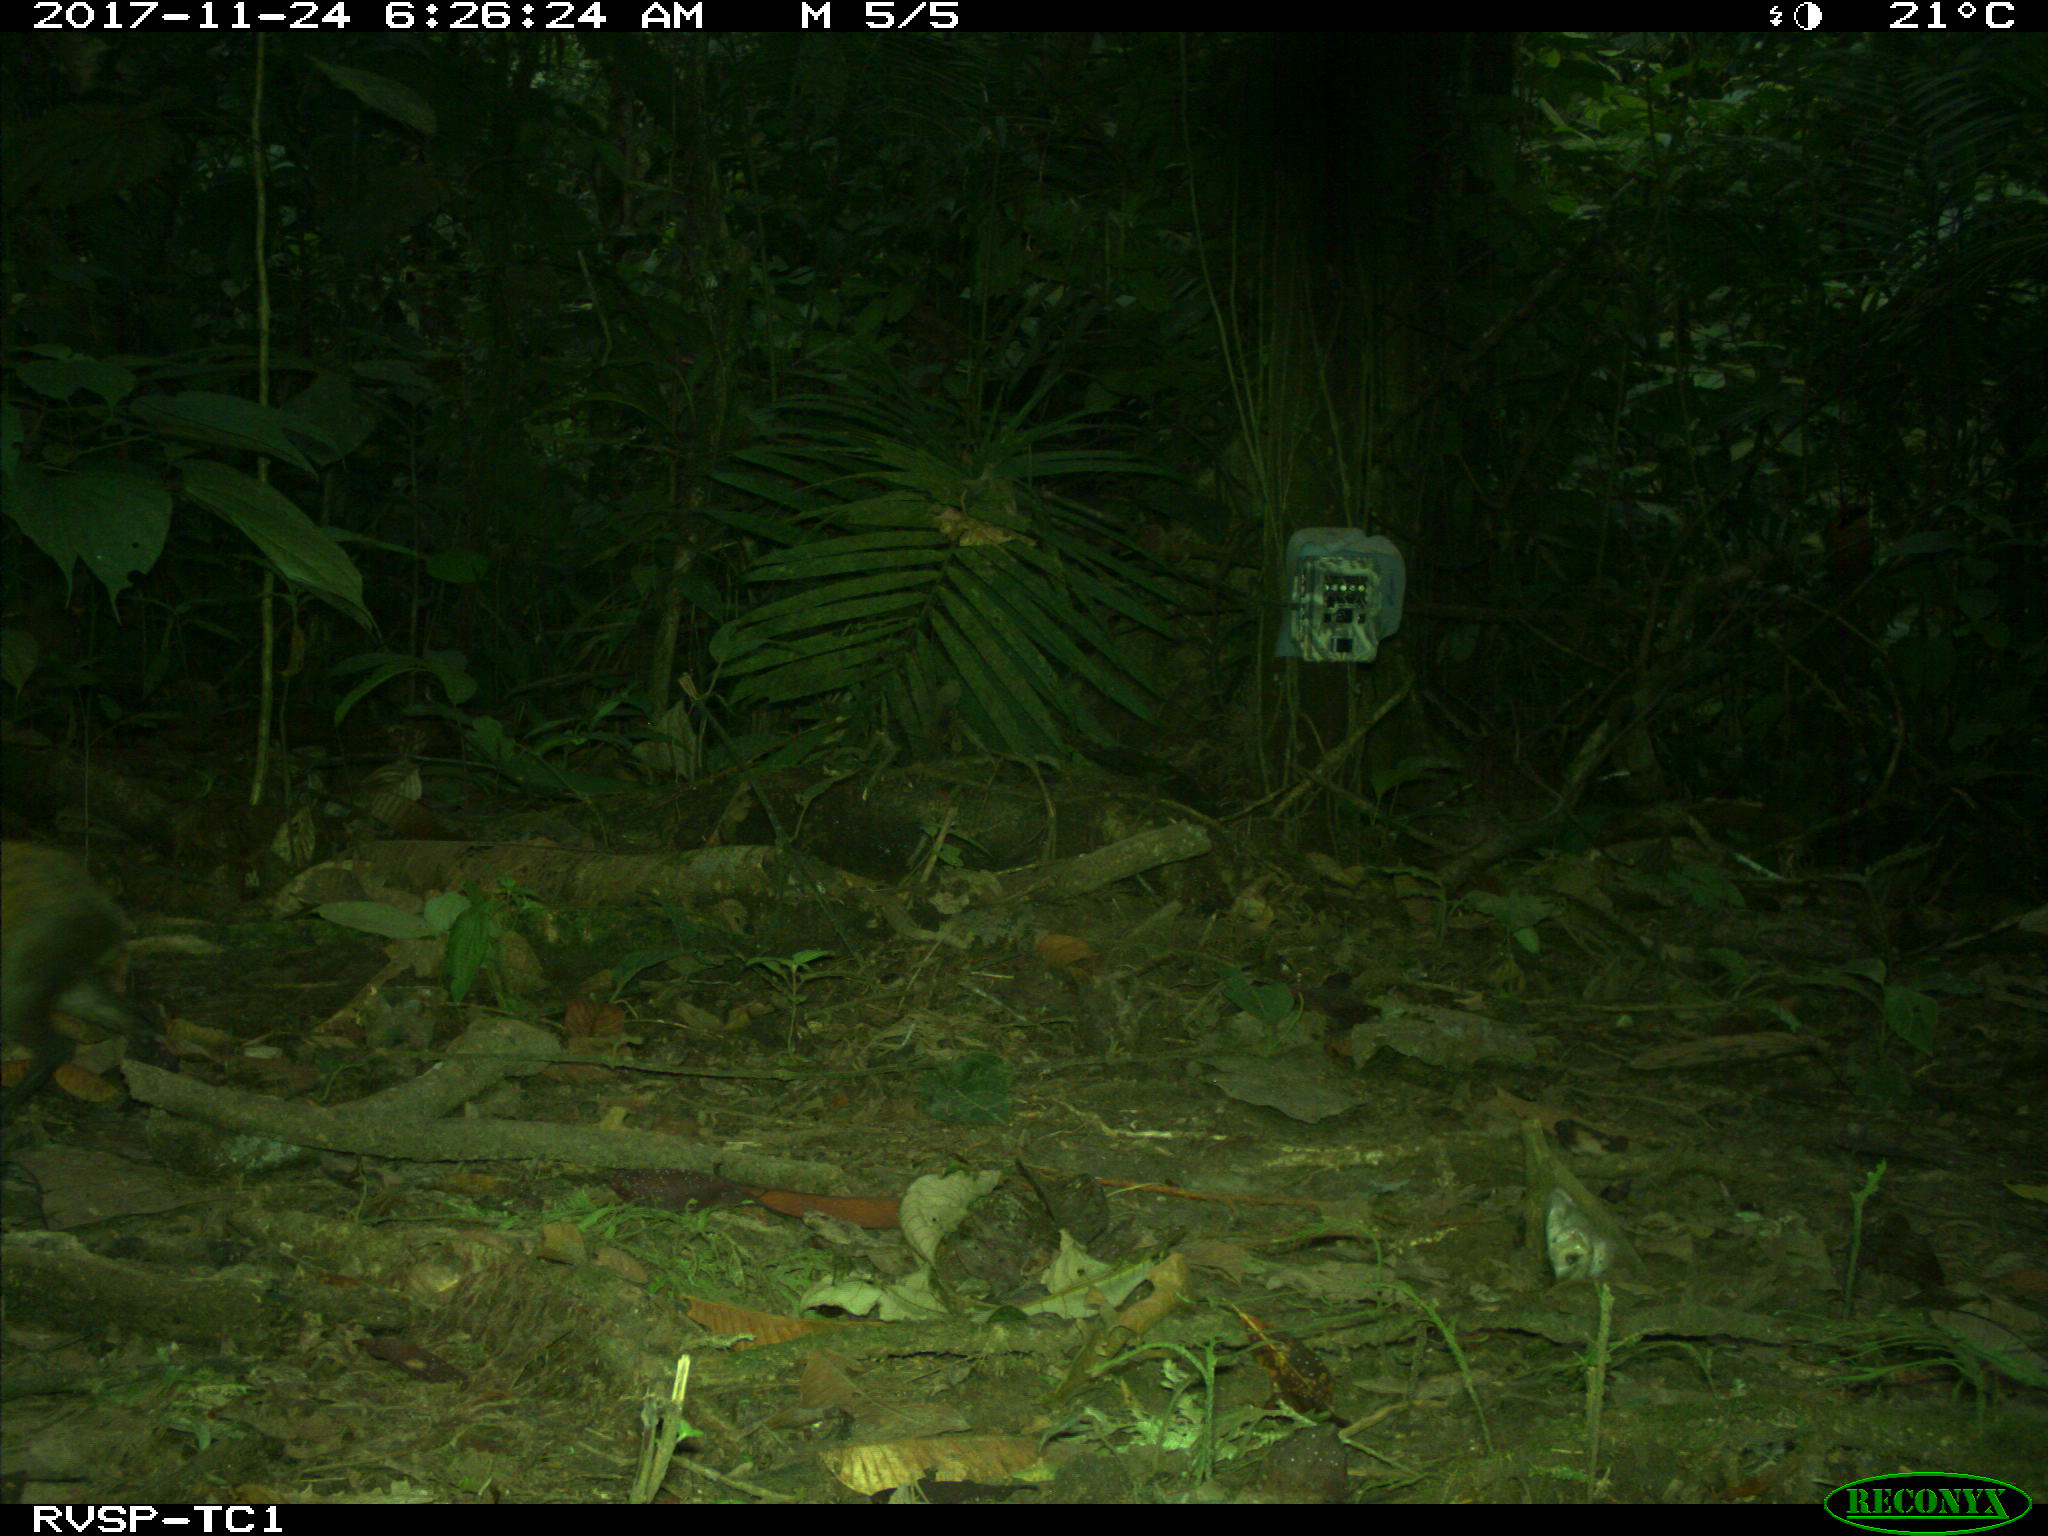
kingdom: Animalia
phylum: Chordata
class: Mammalia
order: Rodentia
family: Dasyproctidae
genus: Dasyprocta
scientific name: Dasyprocta punctata
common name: Central american agouti
